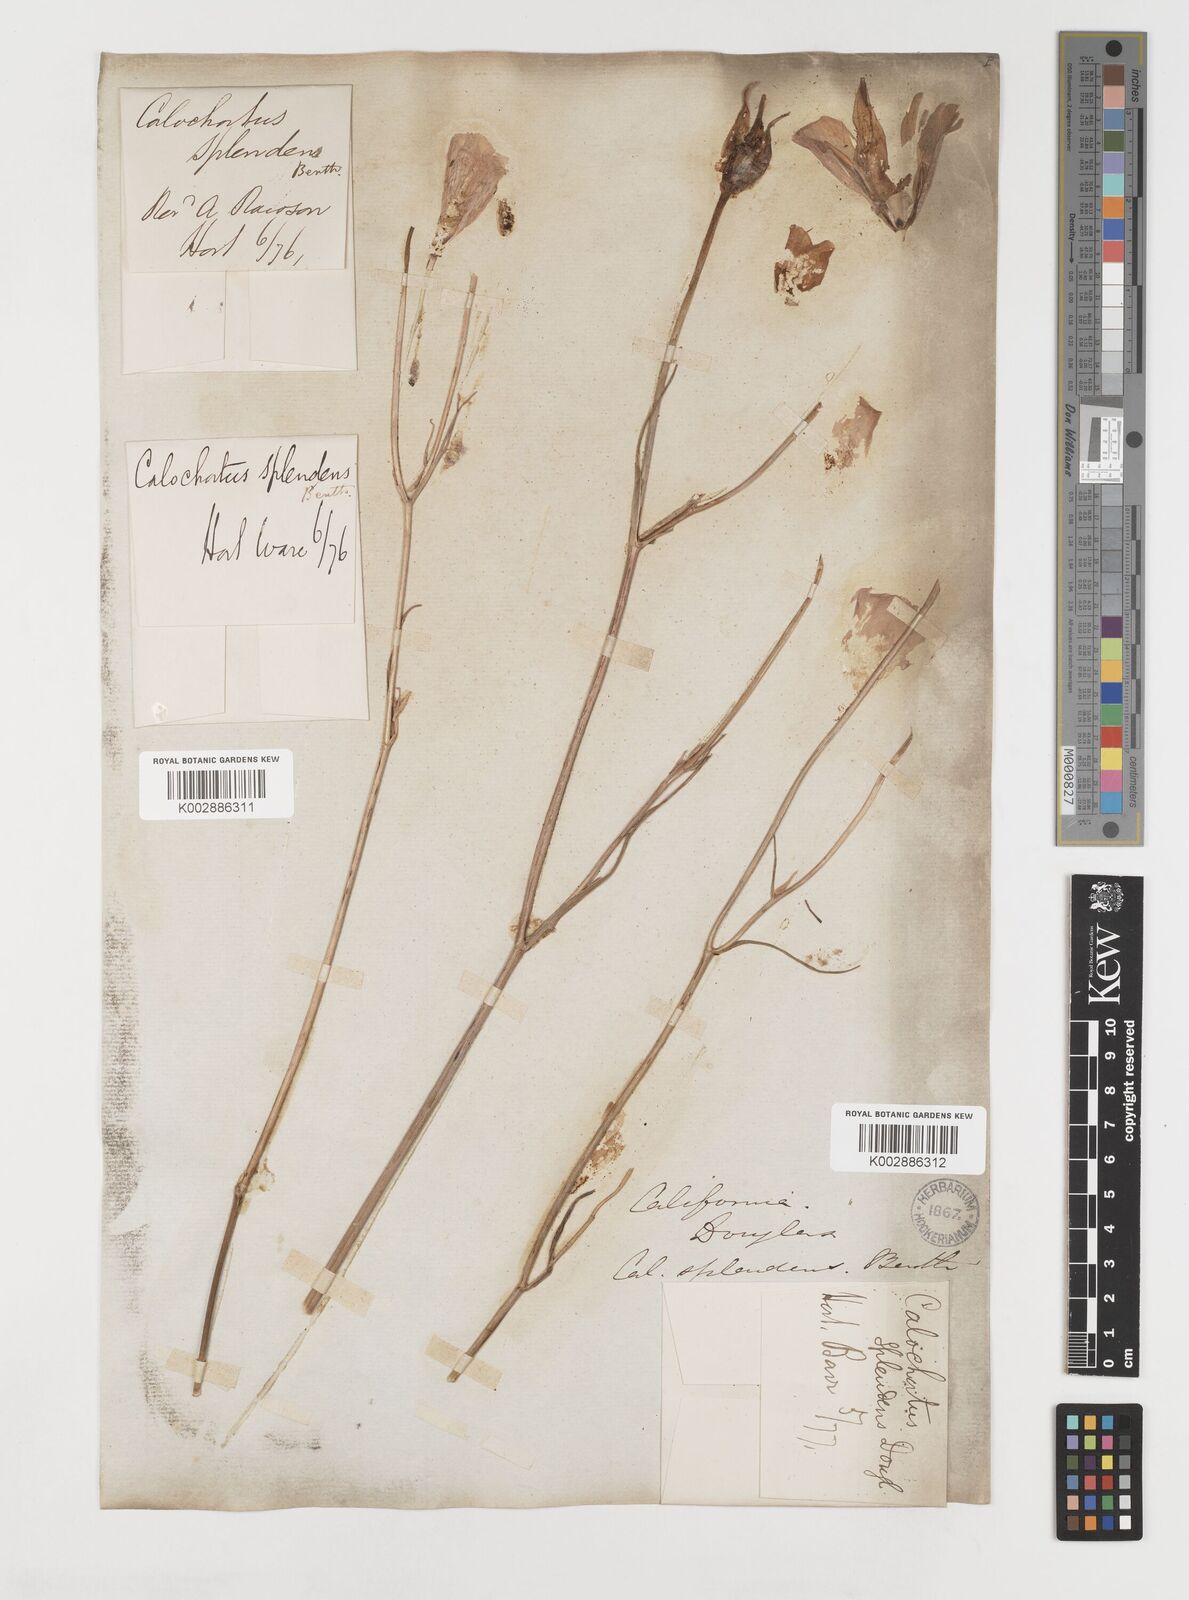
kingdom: Plantae
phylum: Tracheophyta
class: Liliopsida
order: Liliales
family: Liliaceae
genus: Calochortus
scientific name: Calochortus splendens
